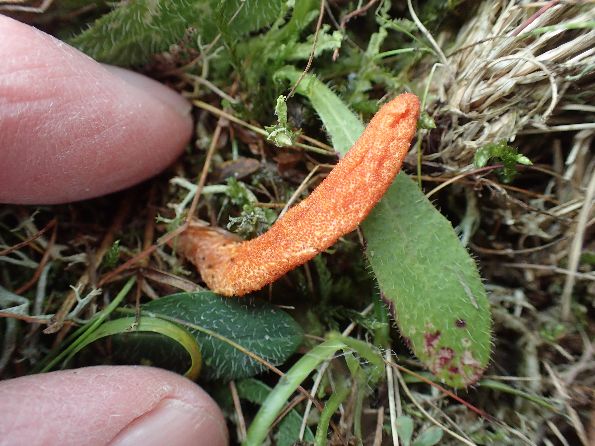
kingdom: Fungi
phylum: Ascomycota
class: Sordariomycetes
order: Hypocreales
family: Cordycipitaceae
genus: Cordyceps
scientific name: Cordyceps militaris
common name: puppe-snyltekølle
